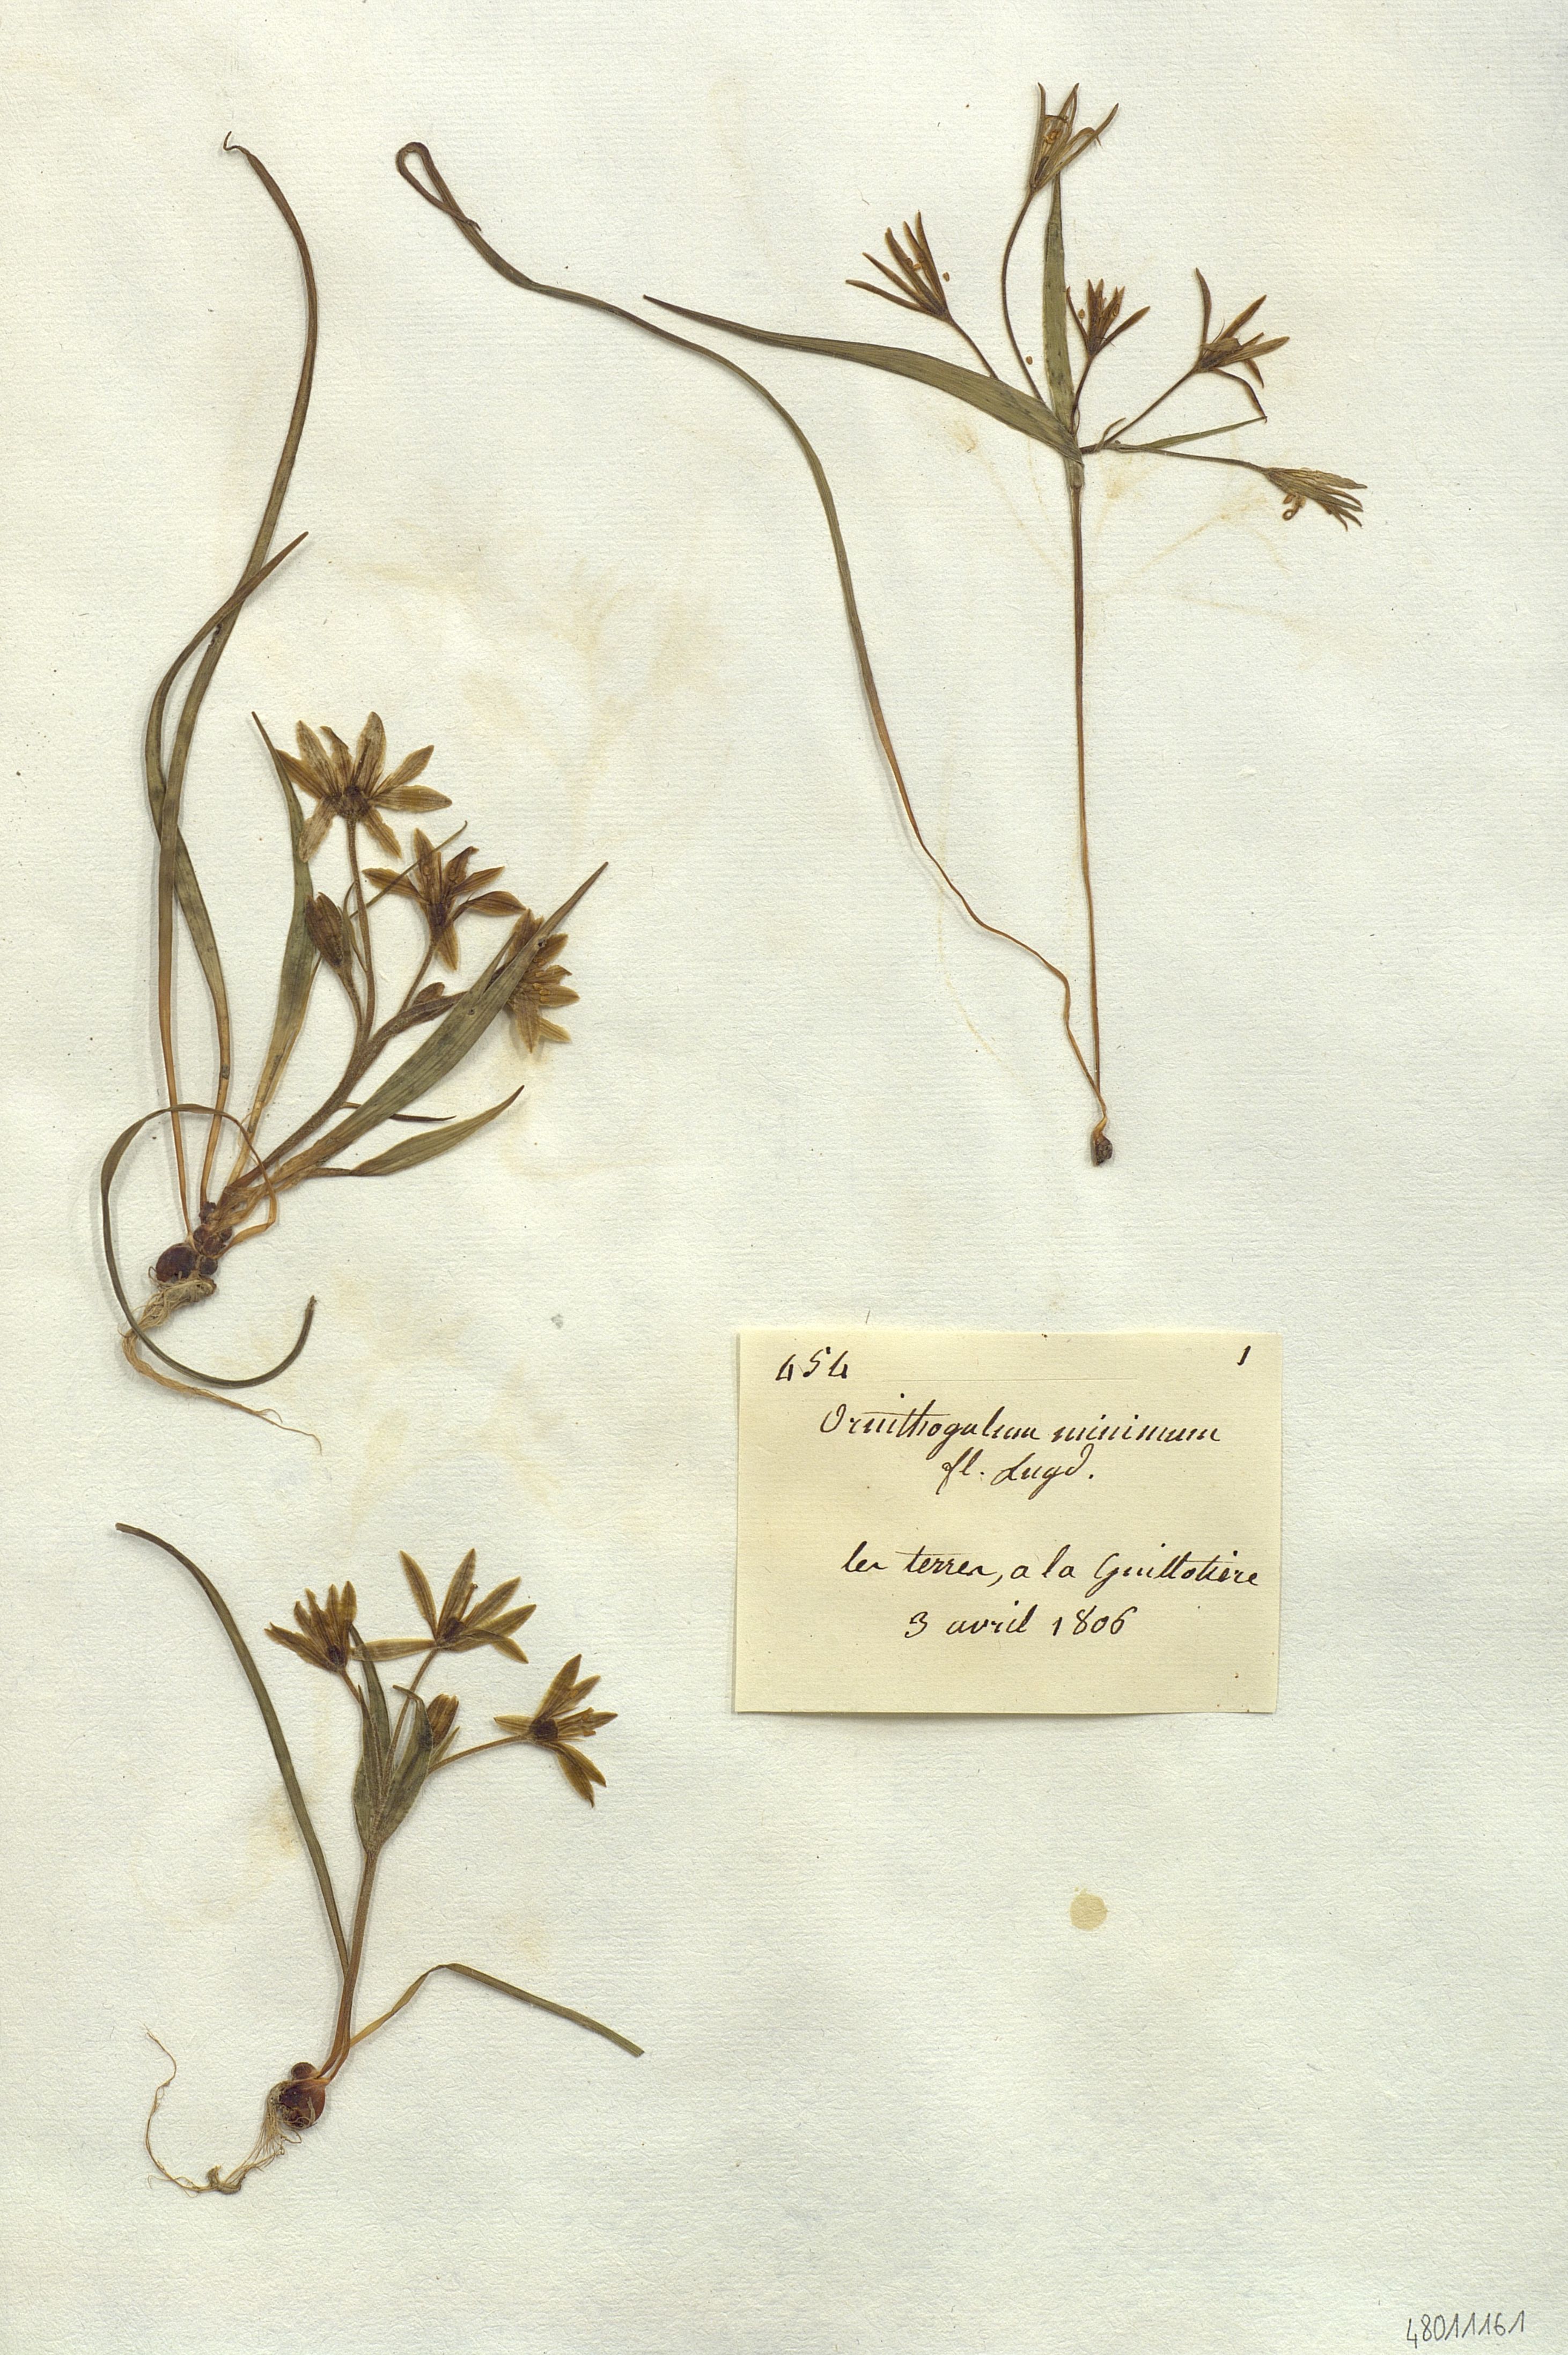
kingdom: Plantae
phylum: Tracheophyta
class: Liliopsida
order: Liliales
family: Liliaceae
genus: Gagea
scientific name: Gagea minima
